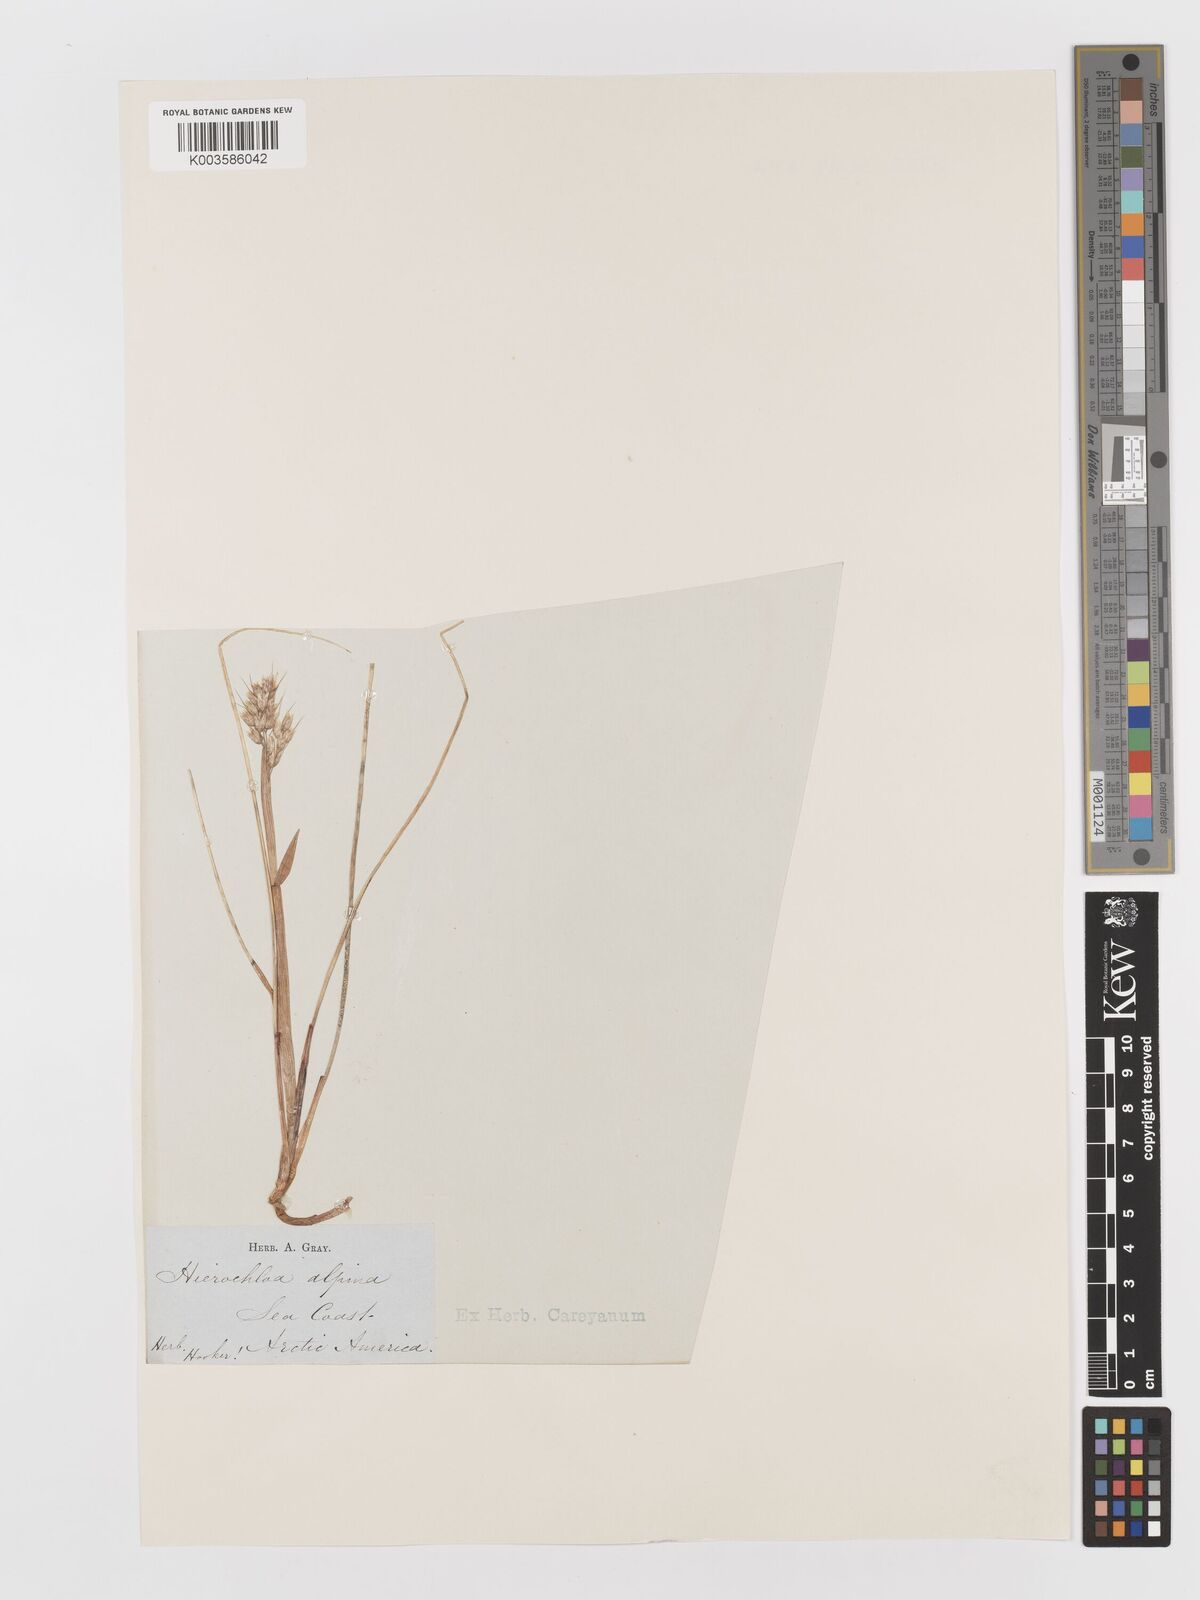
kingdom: Plantae
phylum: Tracheophyta
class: Liliopsida
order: Poales
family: Poaceae
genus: Anthoxanthum
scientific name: Anthoxanthum monticola
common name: Alpine sweetgrass
